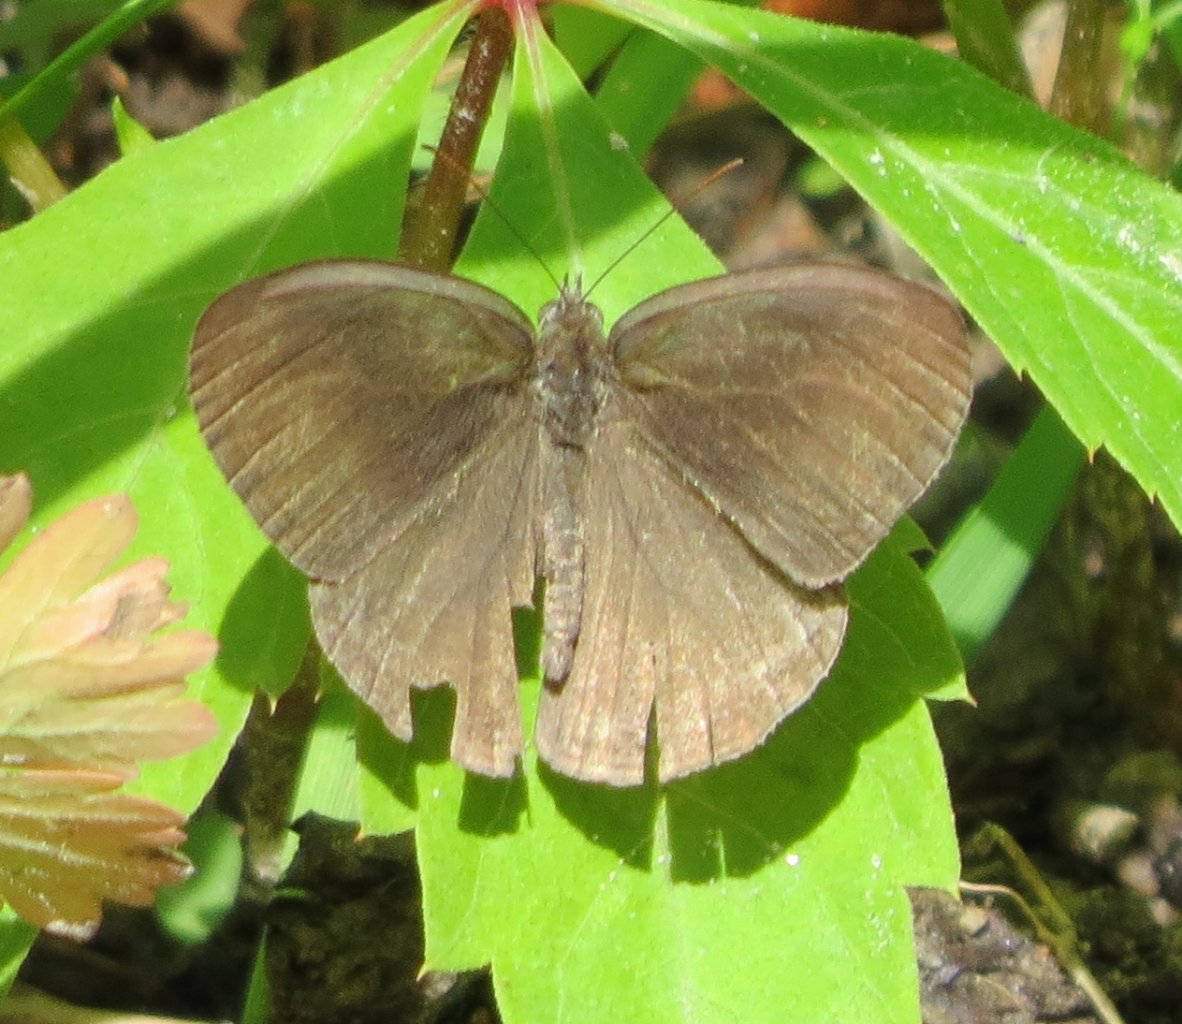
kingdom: Animalia
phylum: Arthropoda
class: Insecta
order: Lepidoptera
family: Nymphalidae
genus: Hermeuptychia
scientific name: Hermeuptychia hermes
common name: Carolina Satyr
